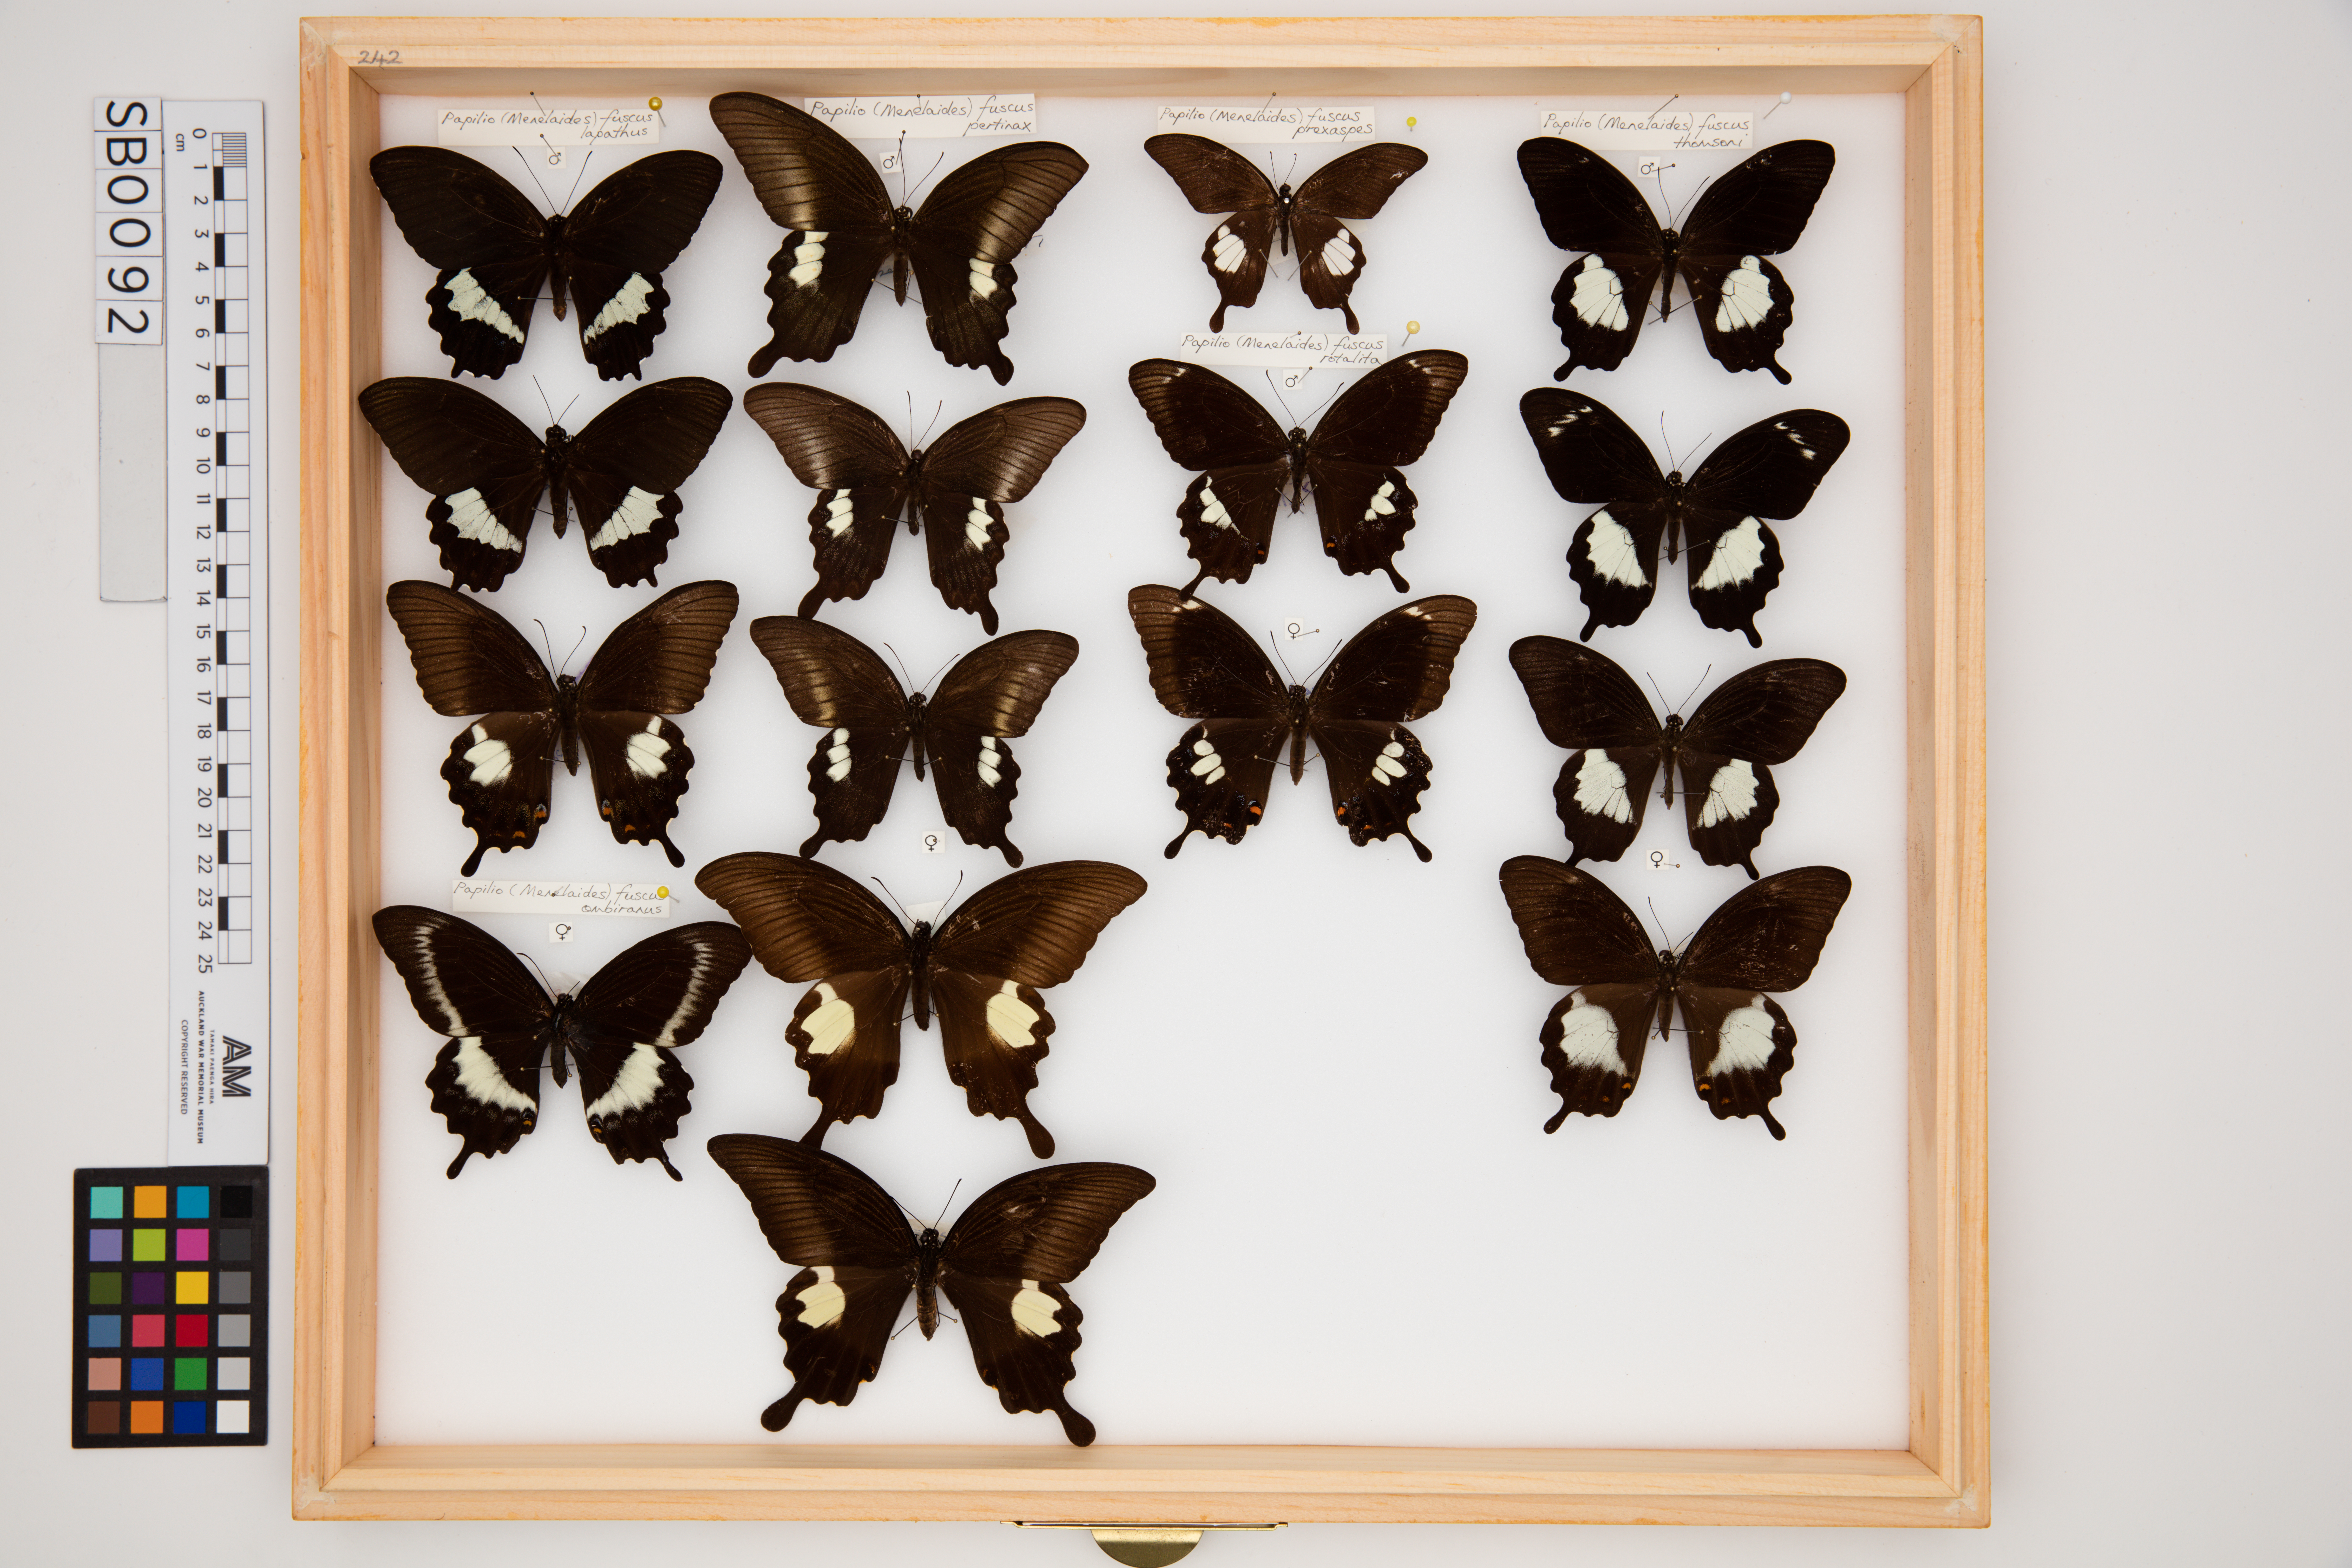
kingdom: Animalia
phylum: Arthropoda
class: Insecta
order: Lepidoptera
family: Papilionidae
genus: Papilio
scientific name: Papilio fuscus
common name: Fuscous swallowtail
